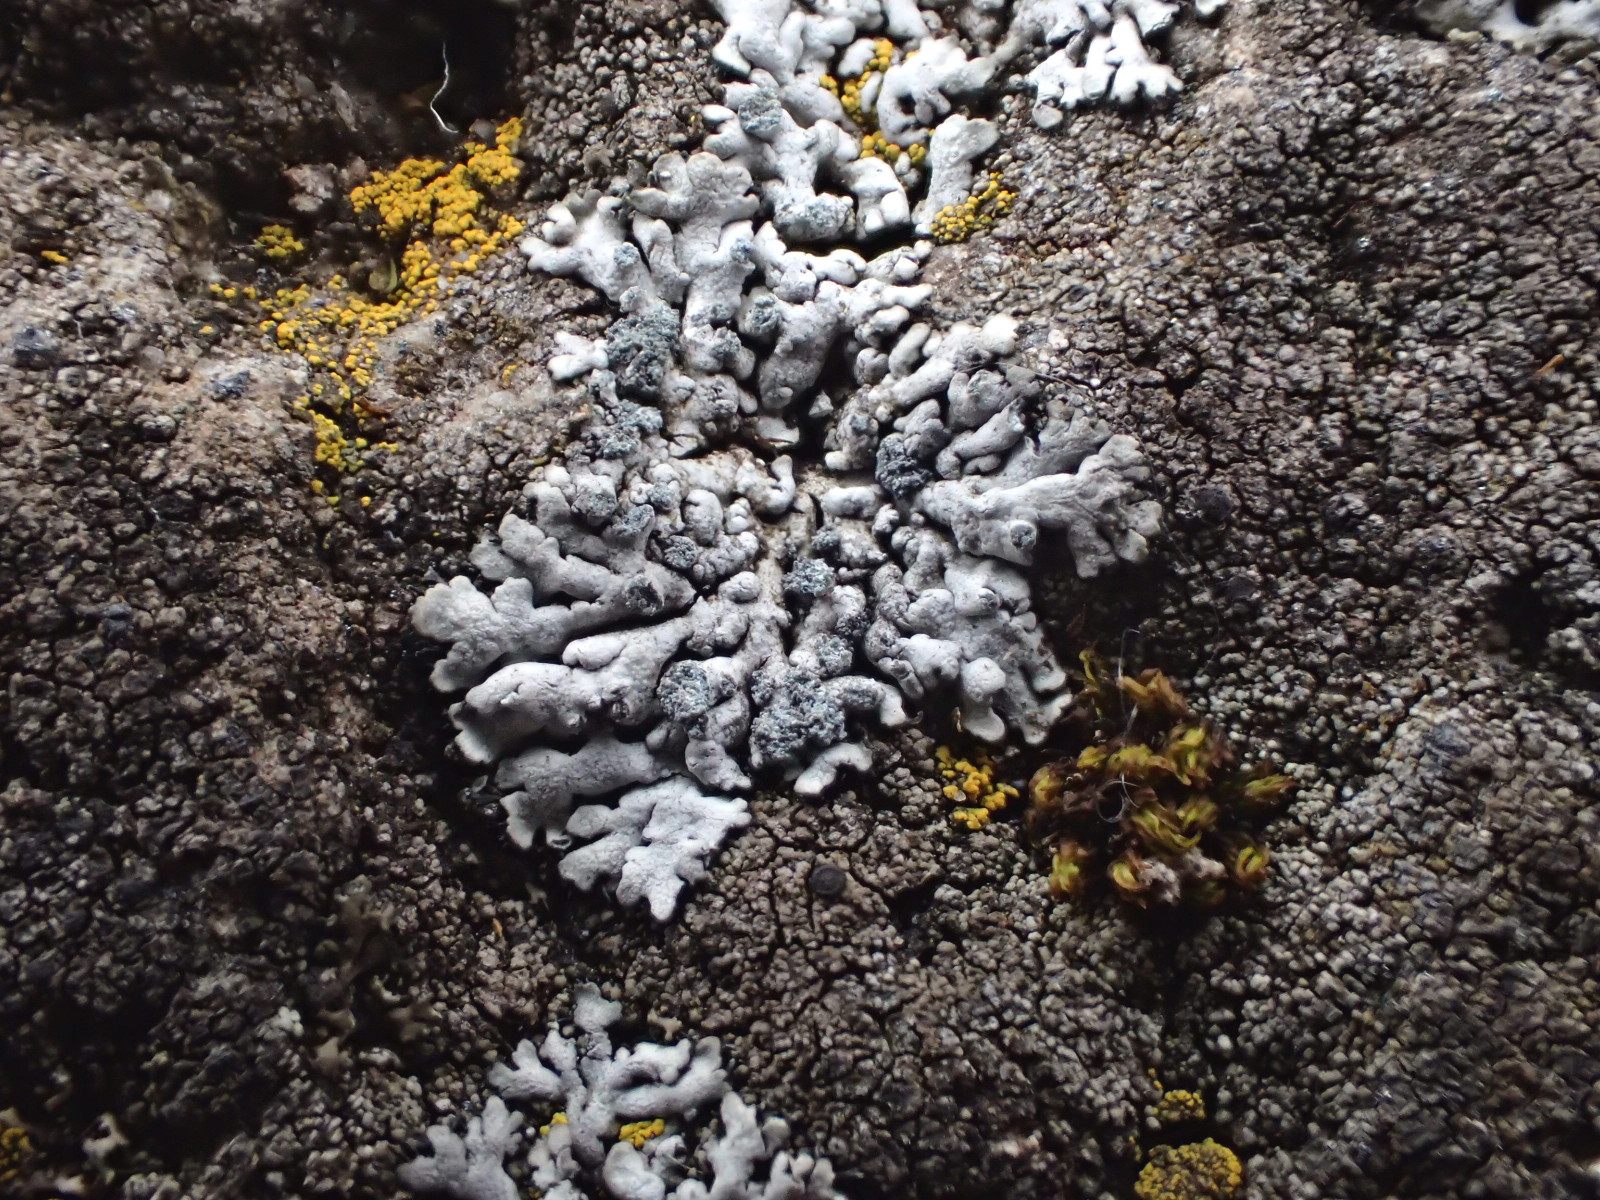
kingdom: Fungi
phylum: Ascomycota
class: Lecanoromycetes
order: Caliciales
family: Physciaceae
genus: Physcia
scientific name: Physcia caesia
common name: blågrå rosetlav
